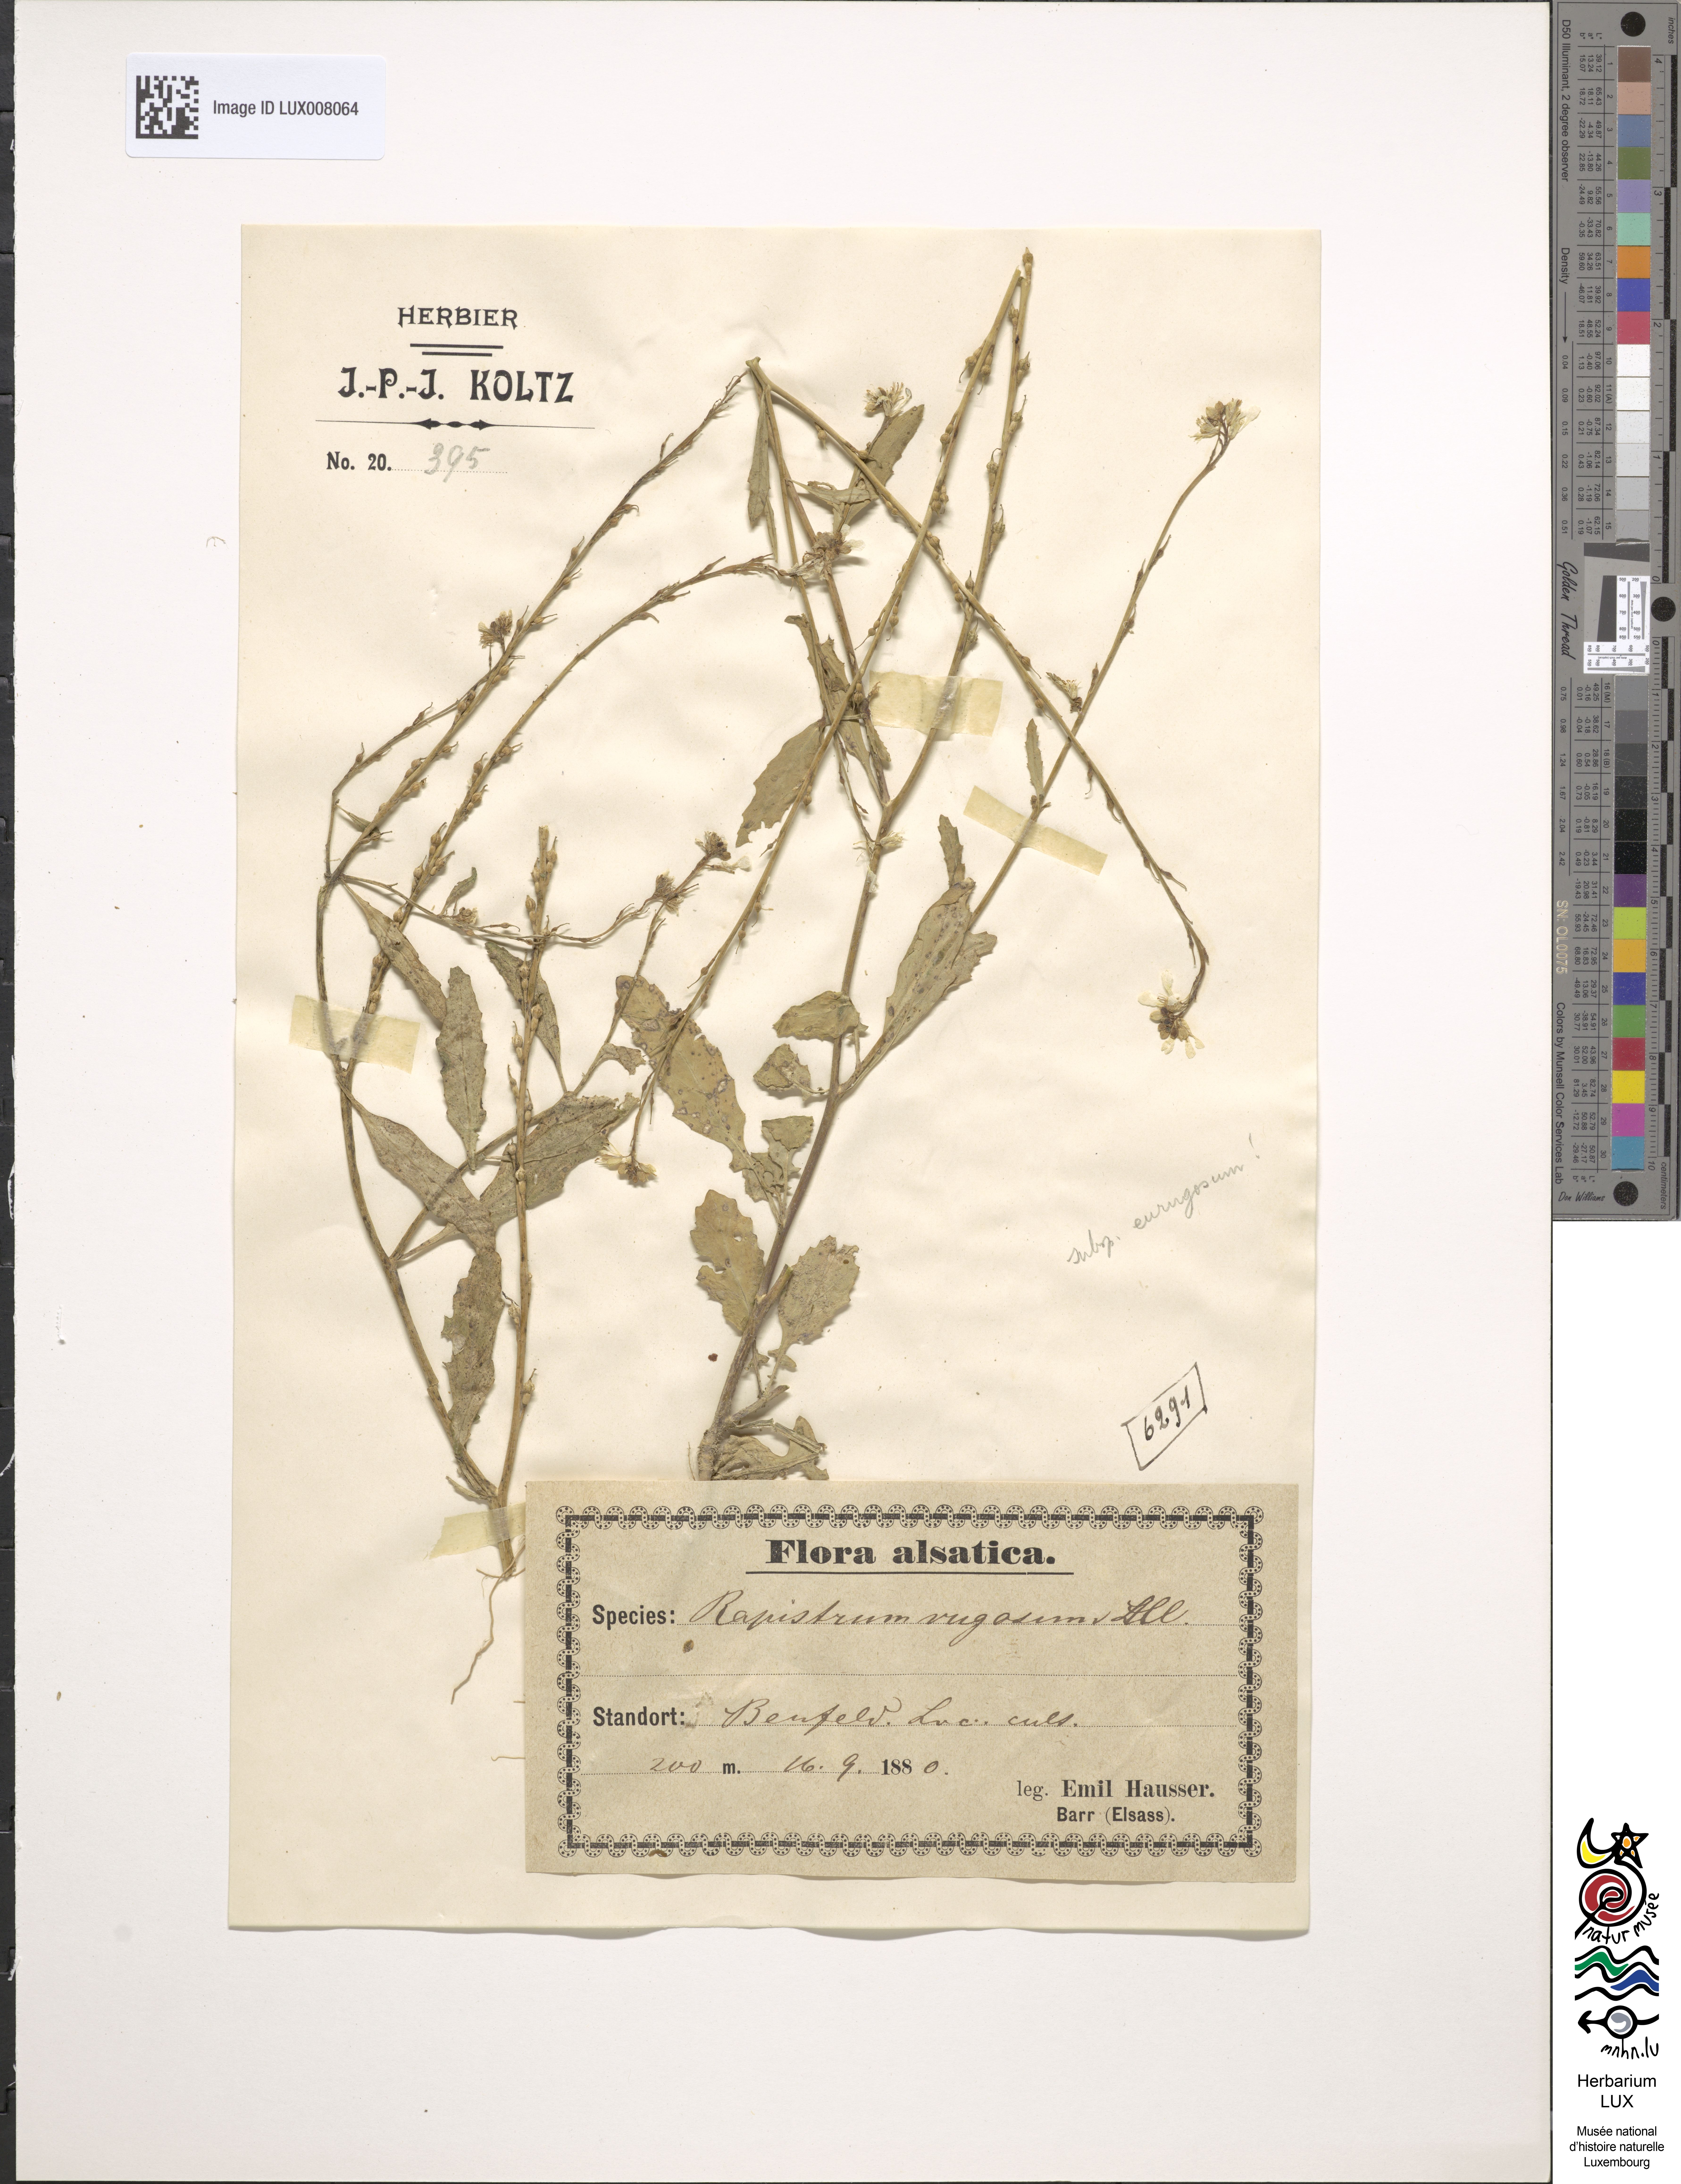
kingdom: Plantae
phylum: Tracheophyta
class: Magnoliopsida
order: Brassicales
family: Brassicaceae
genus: Rapistrum
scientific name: Rapistrum rugosum
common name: Annual bastardcabbage
